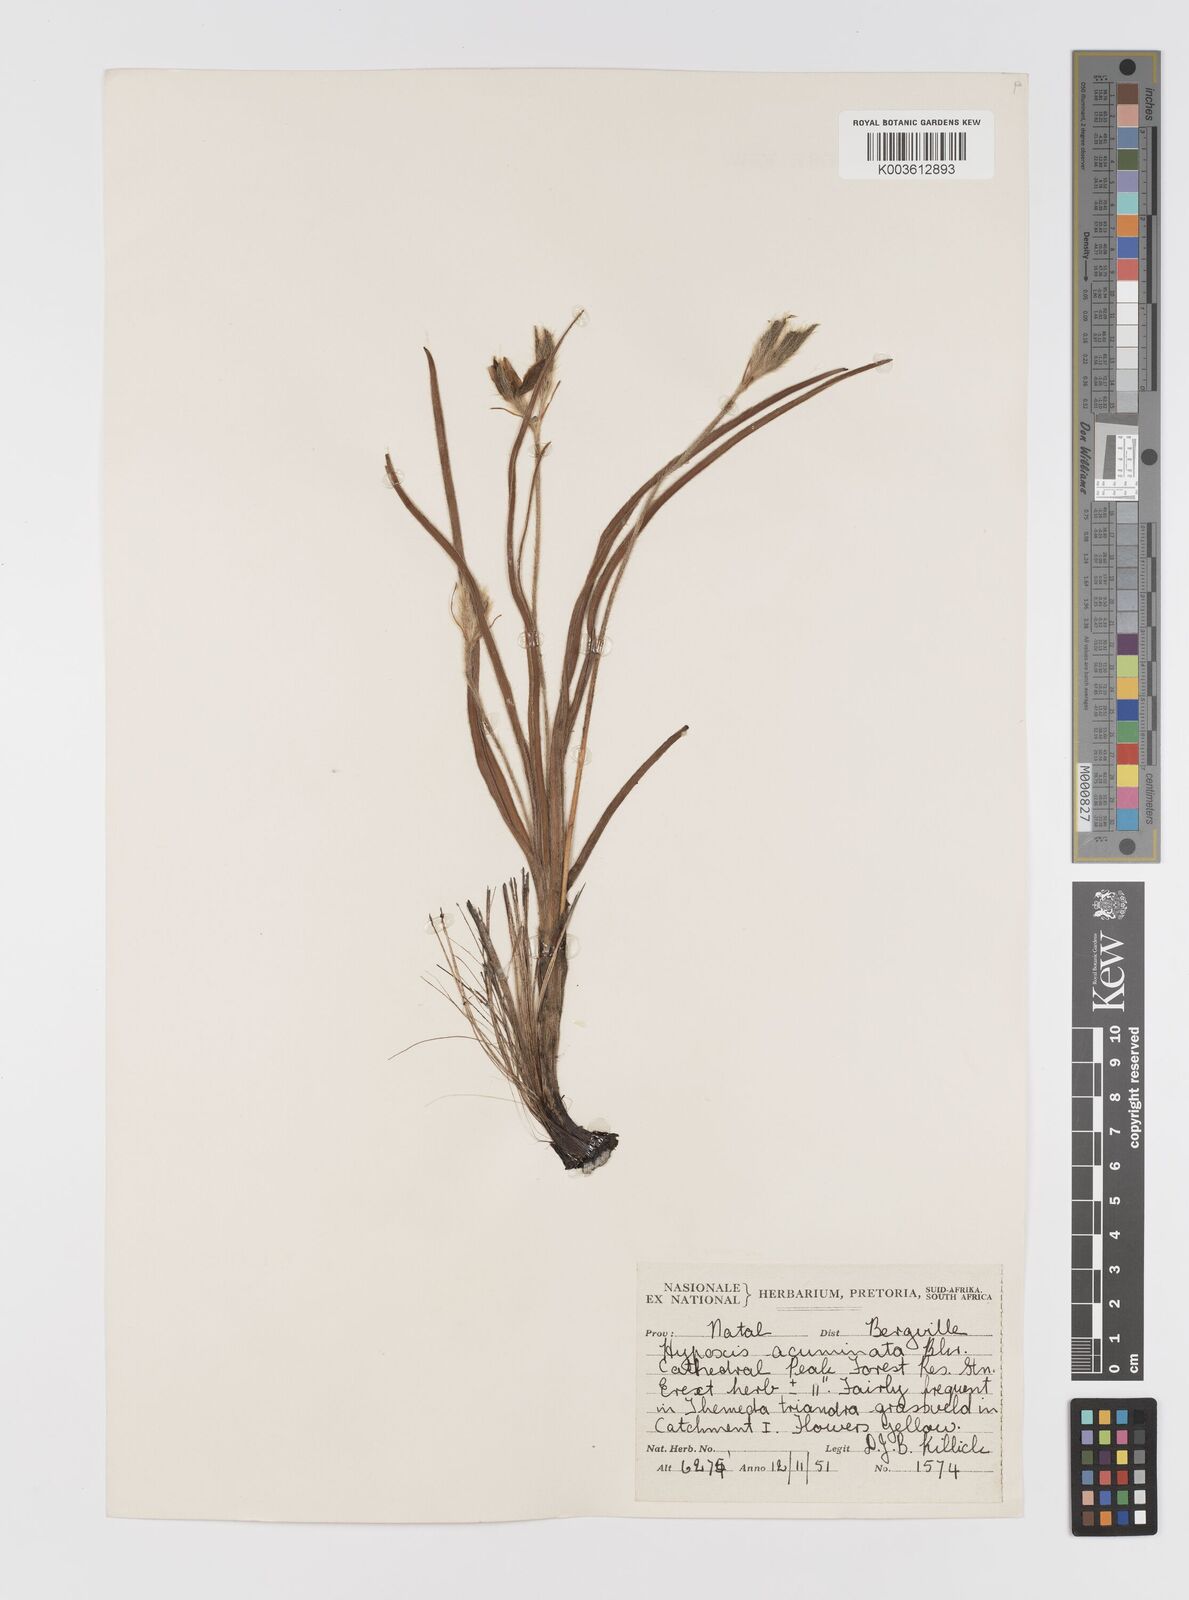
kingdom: Plantae
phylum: Tracheophyta
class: Liliopsida
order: Asparagales
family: Hypoxidaceae
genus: Hypoxis
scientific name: Hypoxis acuminata
